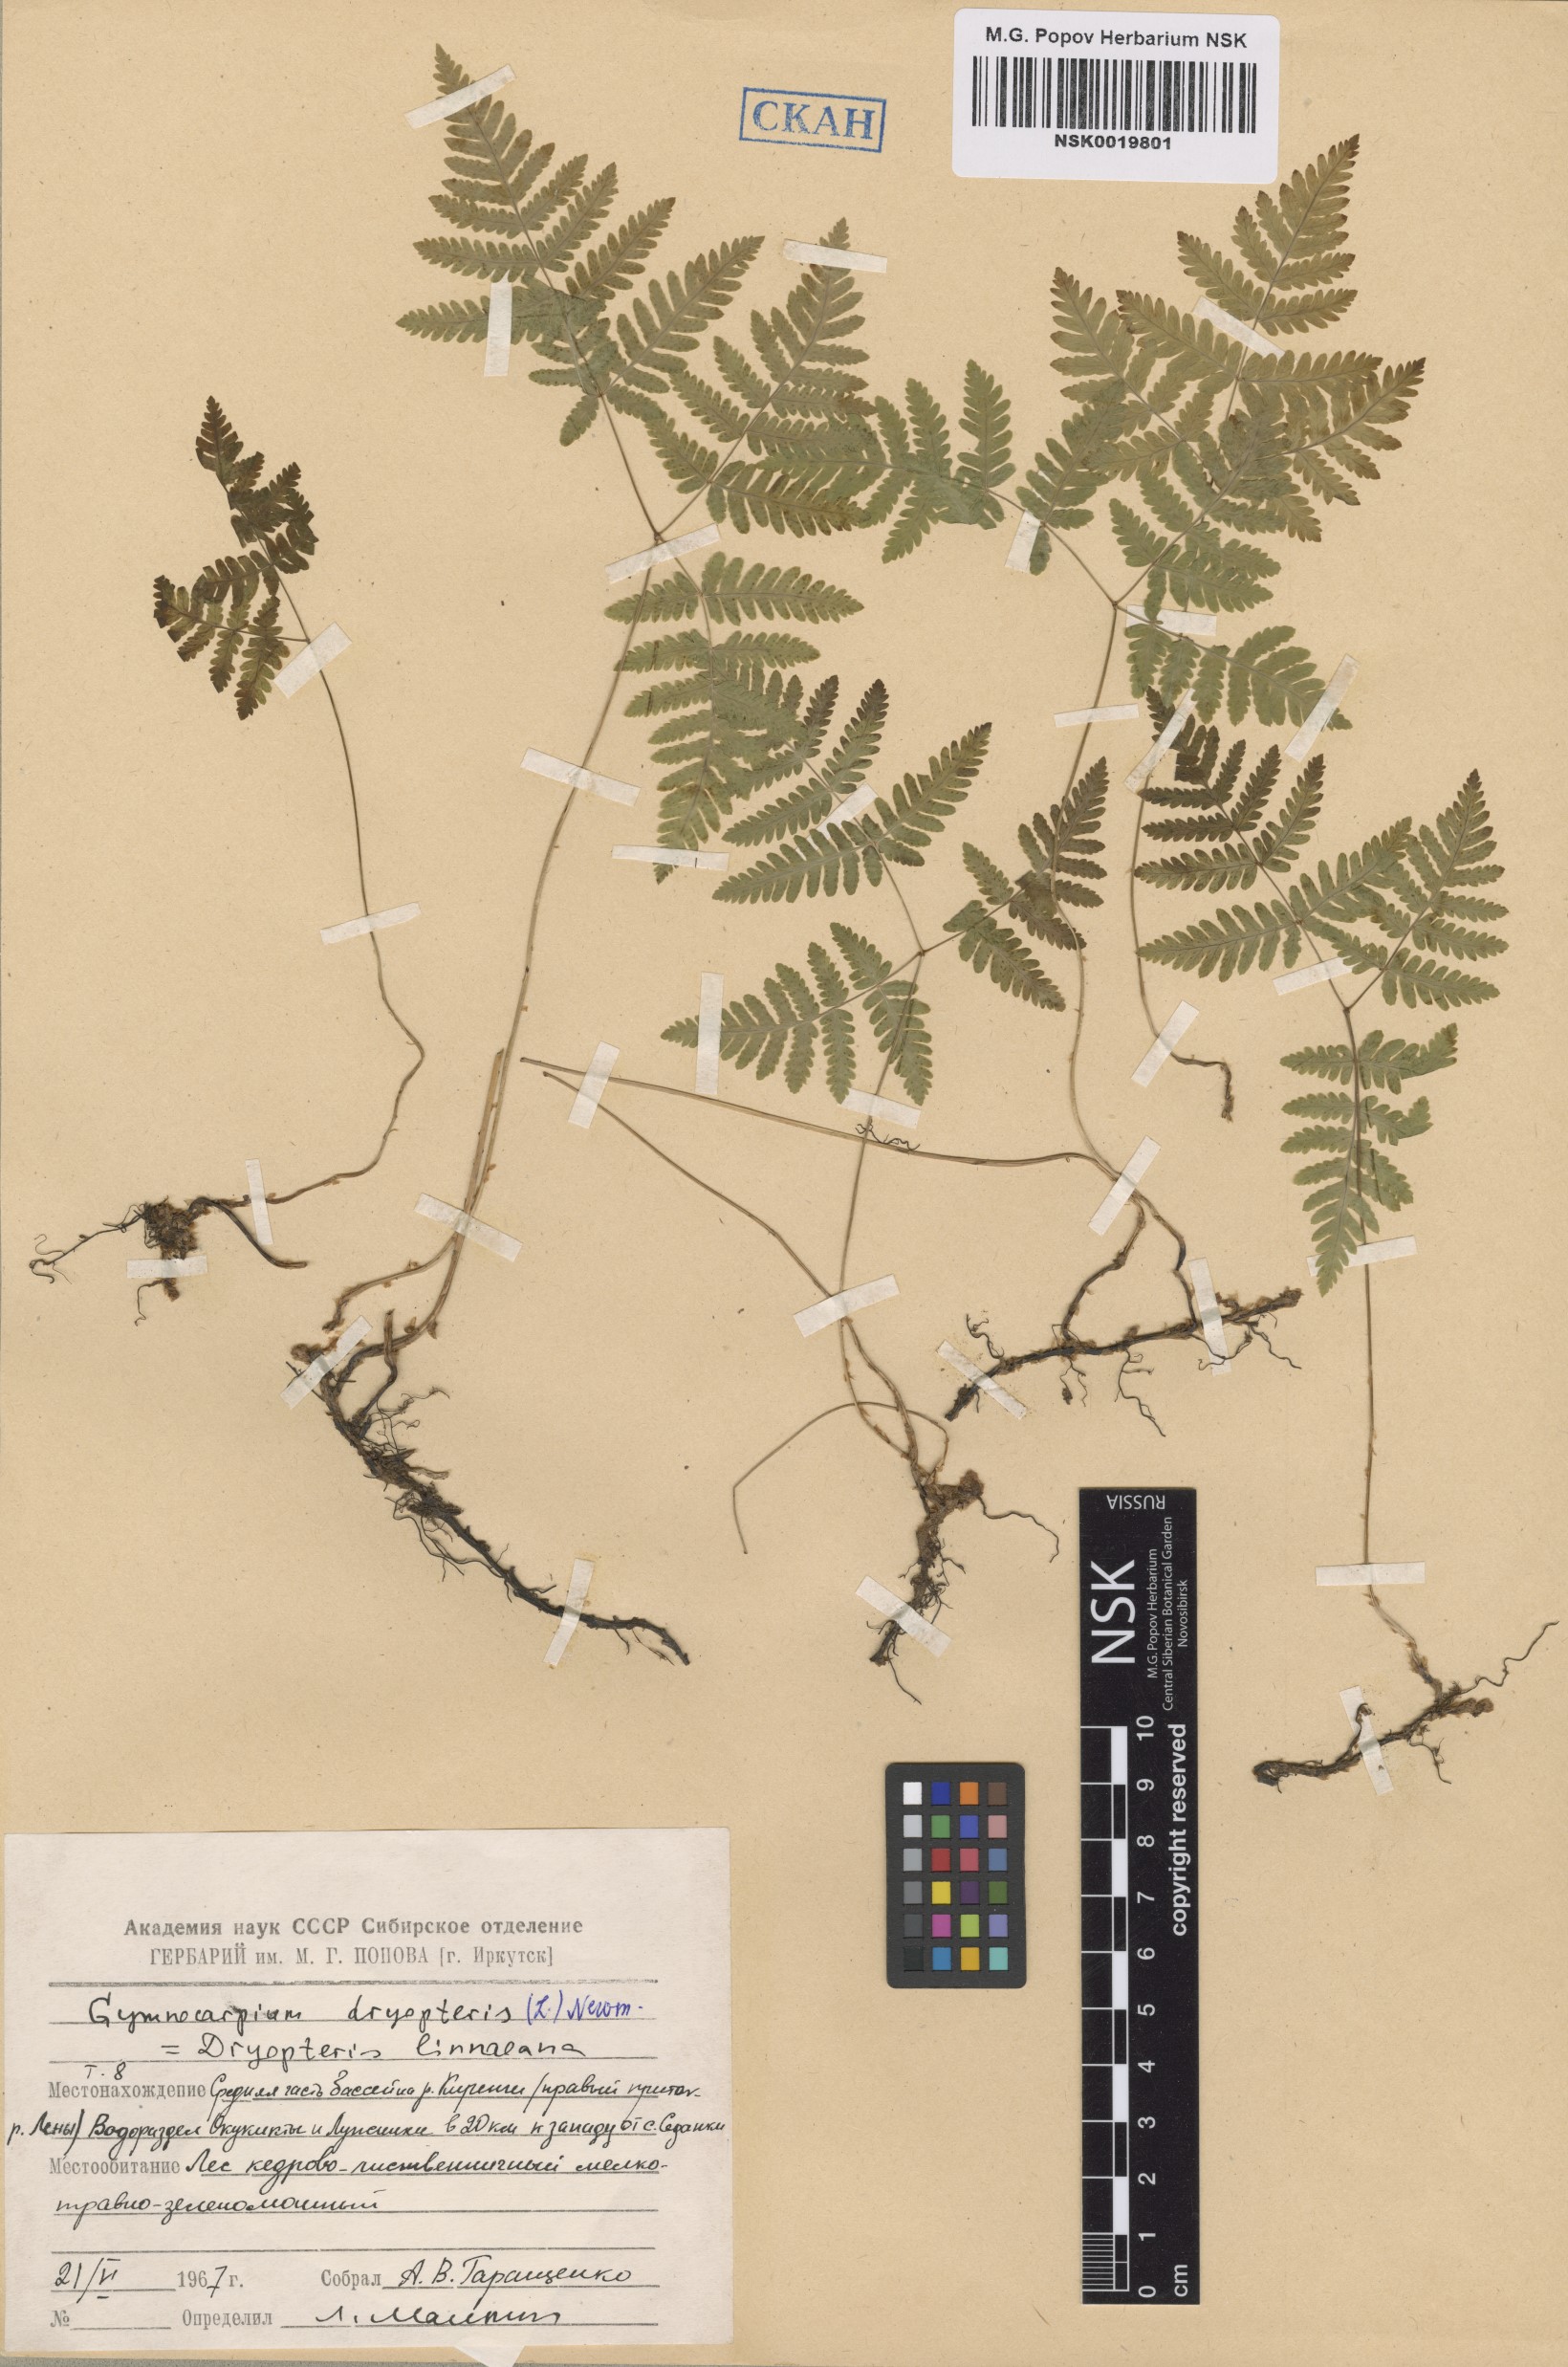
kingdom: Plantae
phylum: Tracheophyta
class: Polypodiopsida
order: Polypodiales
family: Cystopteridaceae
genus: Gymnocarpium
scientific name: Gymnocarpium dryopteris
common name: Oak fern
